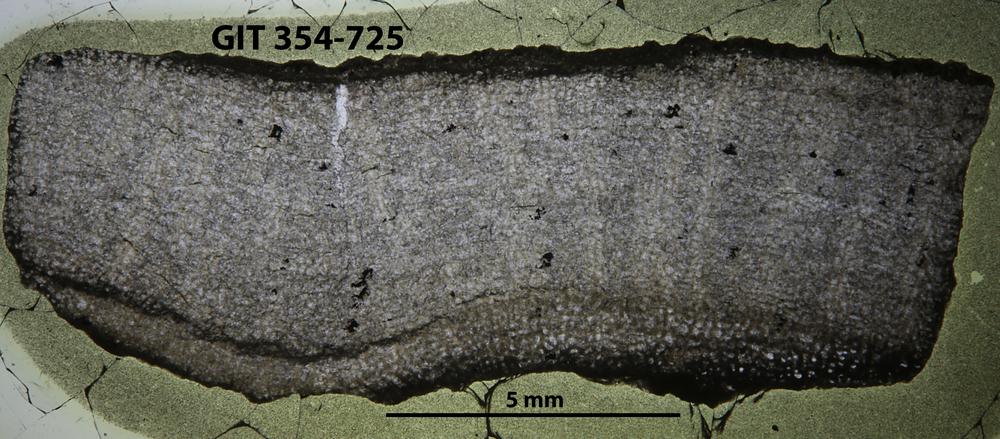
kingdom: Animalia
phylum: Porifera
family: Actinostromatidae
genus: Plectostroma
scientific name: Plectostroma
